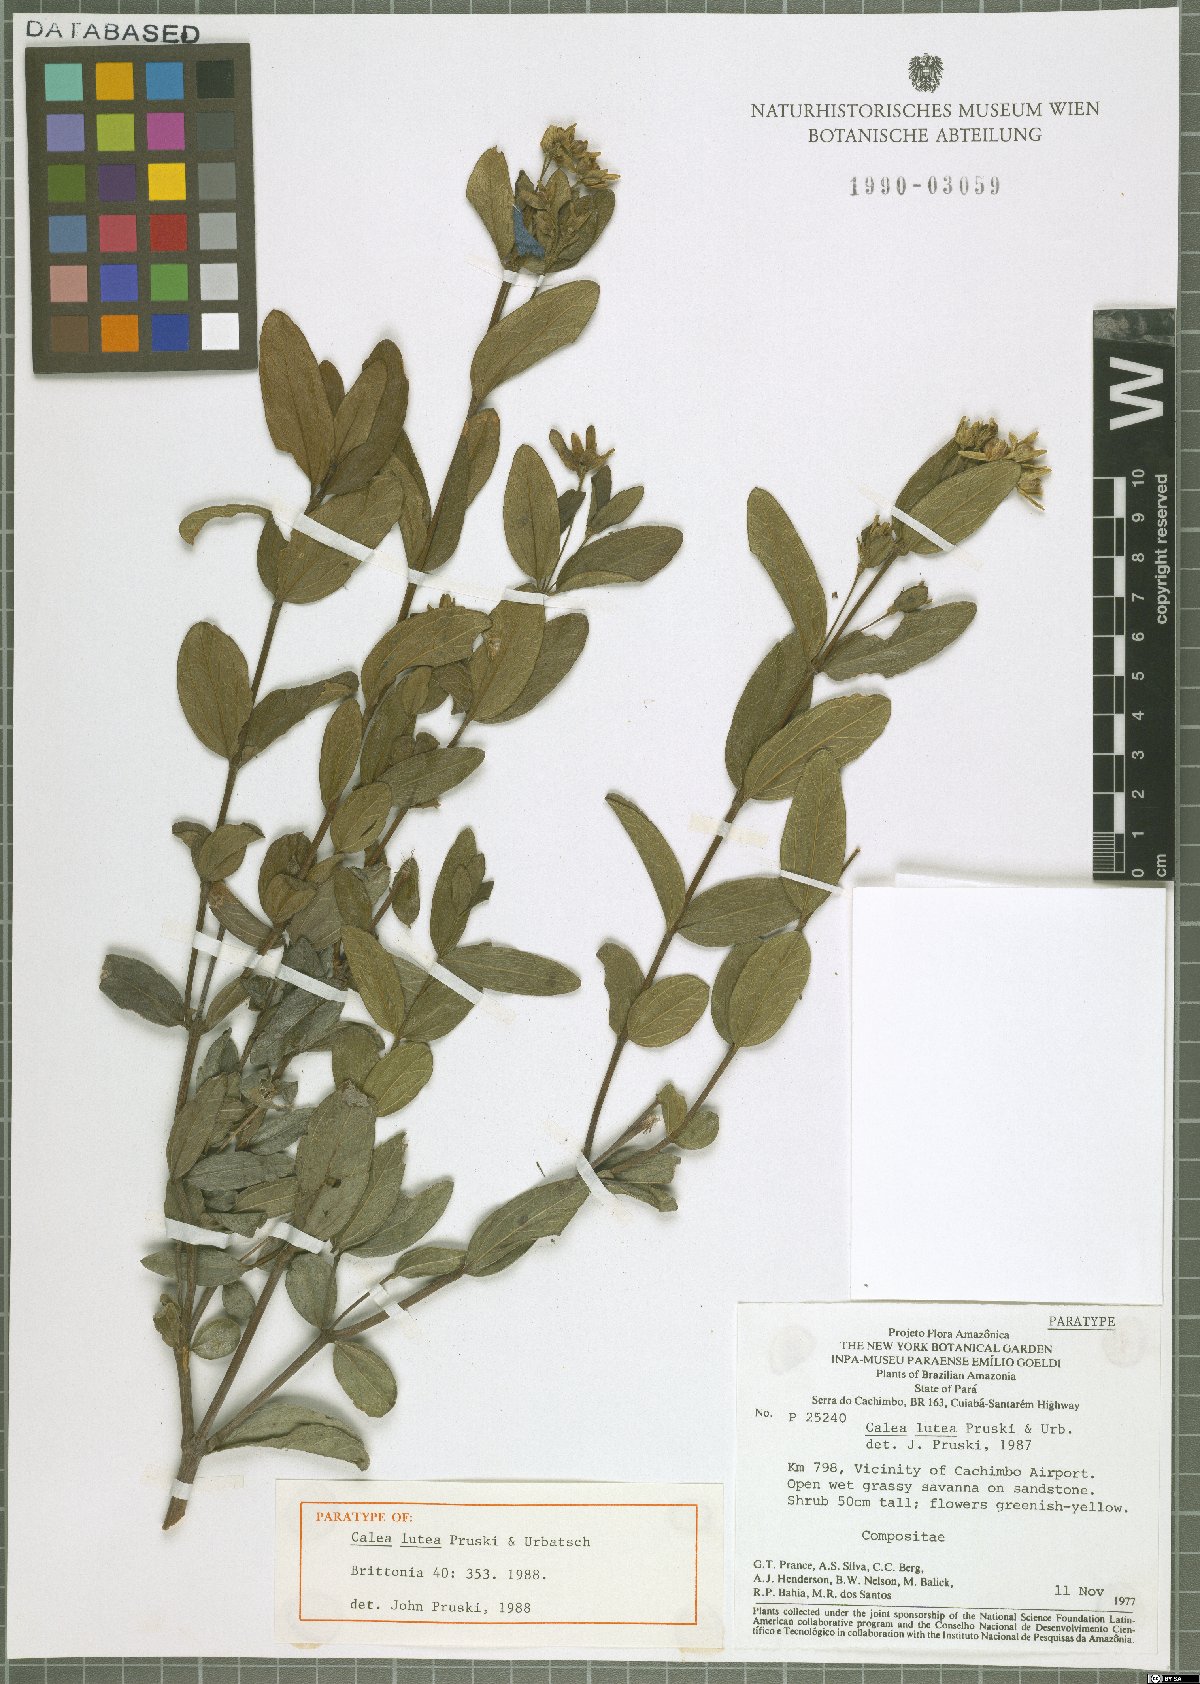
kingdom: Plantae
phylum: Tracheophyta
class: Magnoliopsida
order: Asterales
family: Asteraceae
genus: Calea
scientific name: Calea lutea
